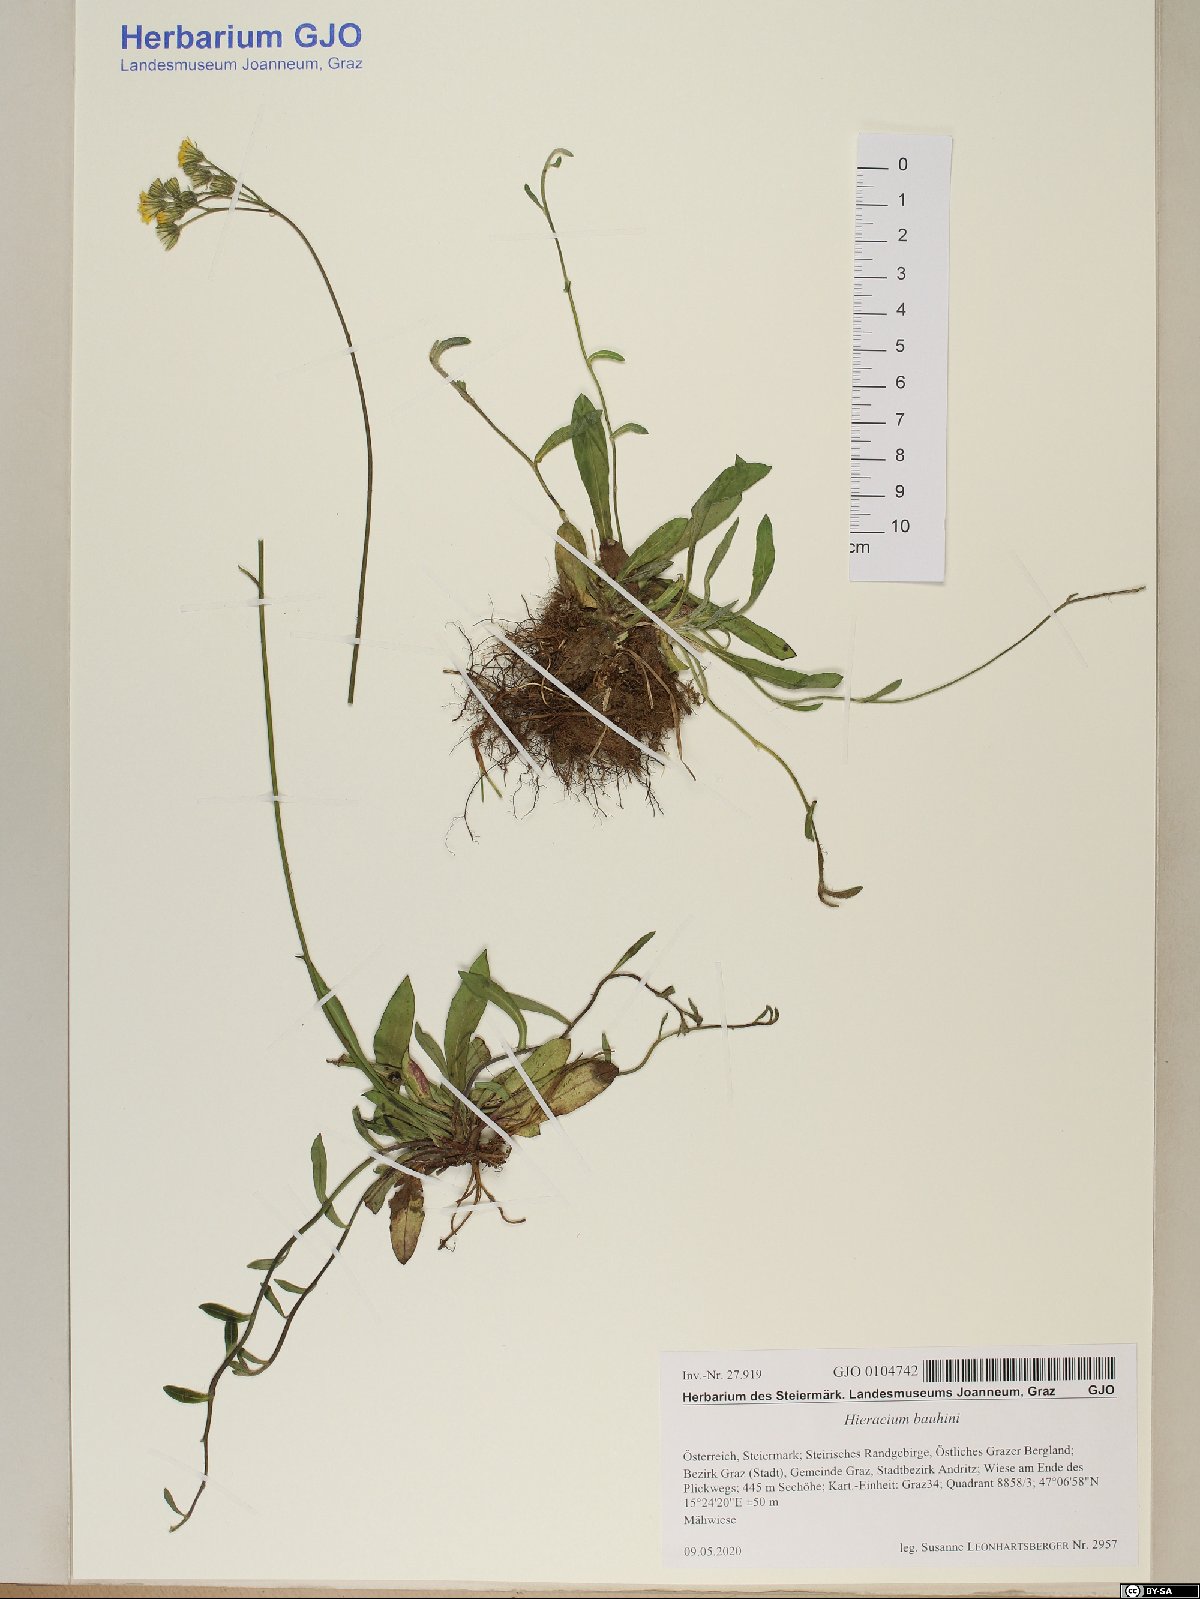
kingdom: Plantae
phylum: Tracheophyta
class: Magnoliopsida
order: Asterales
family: Asteraceae
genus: Pilosella
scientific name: Pilosella bauhini
